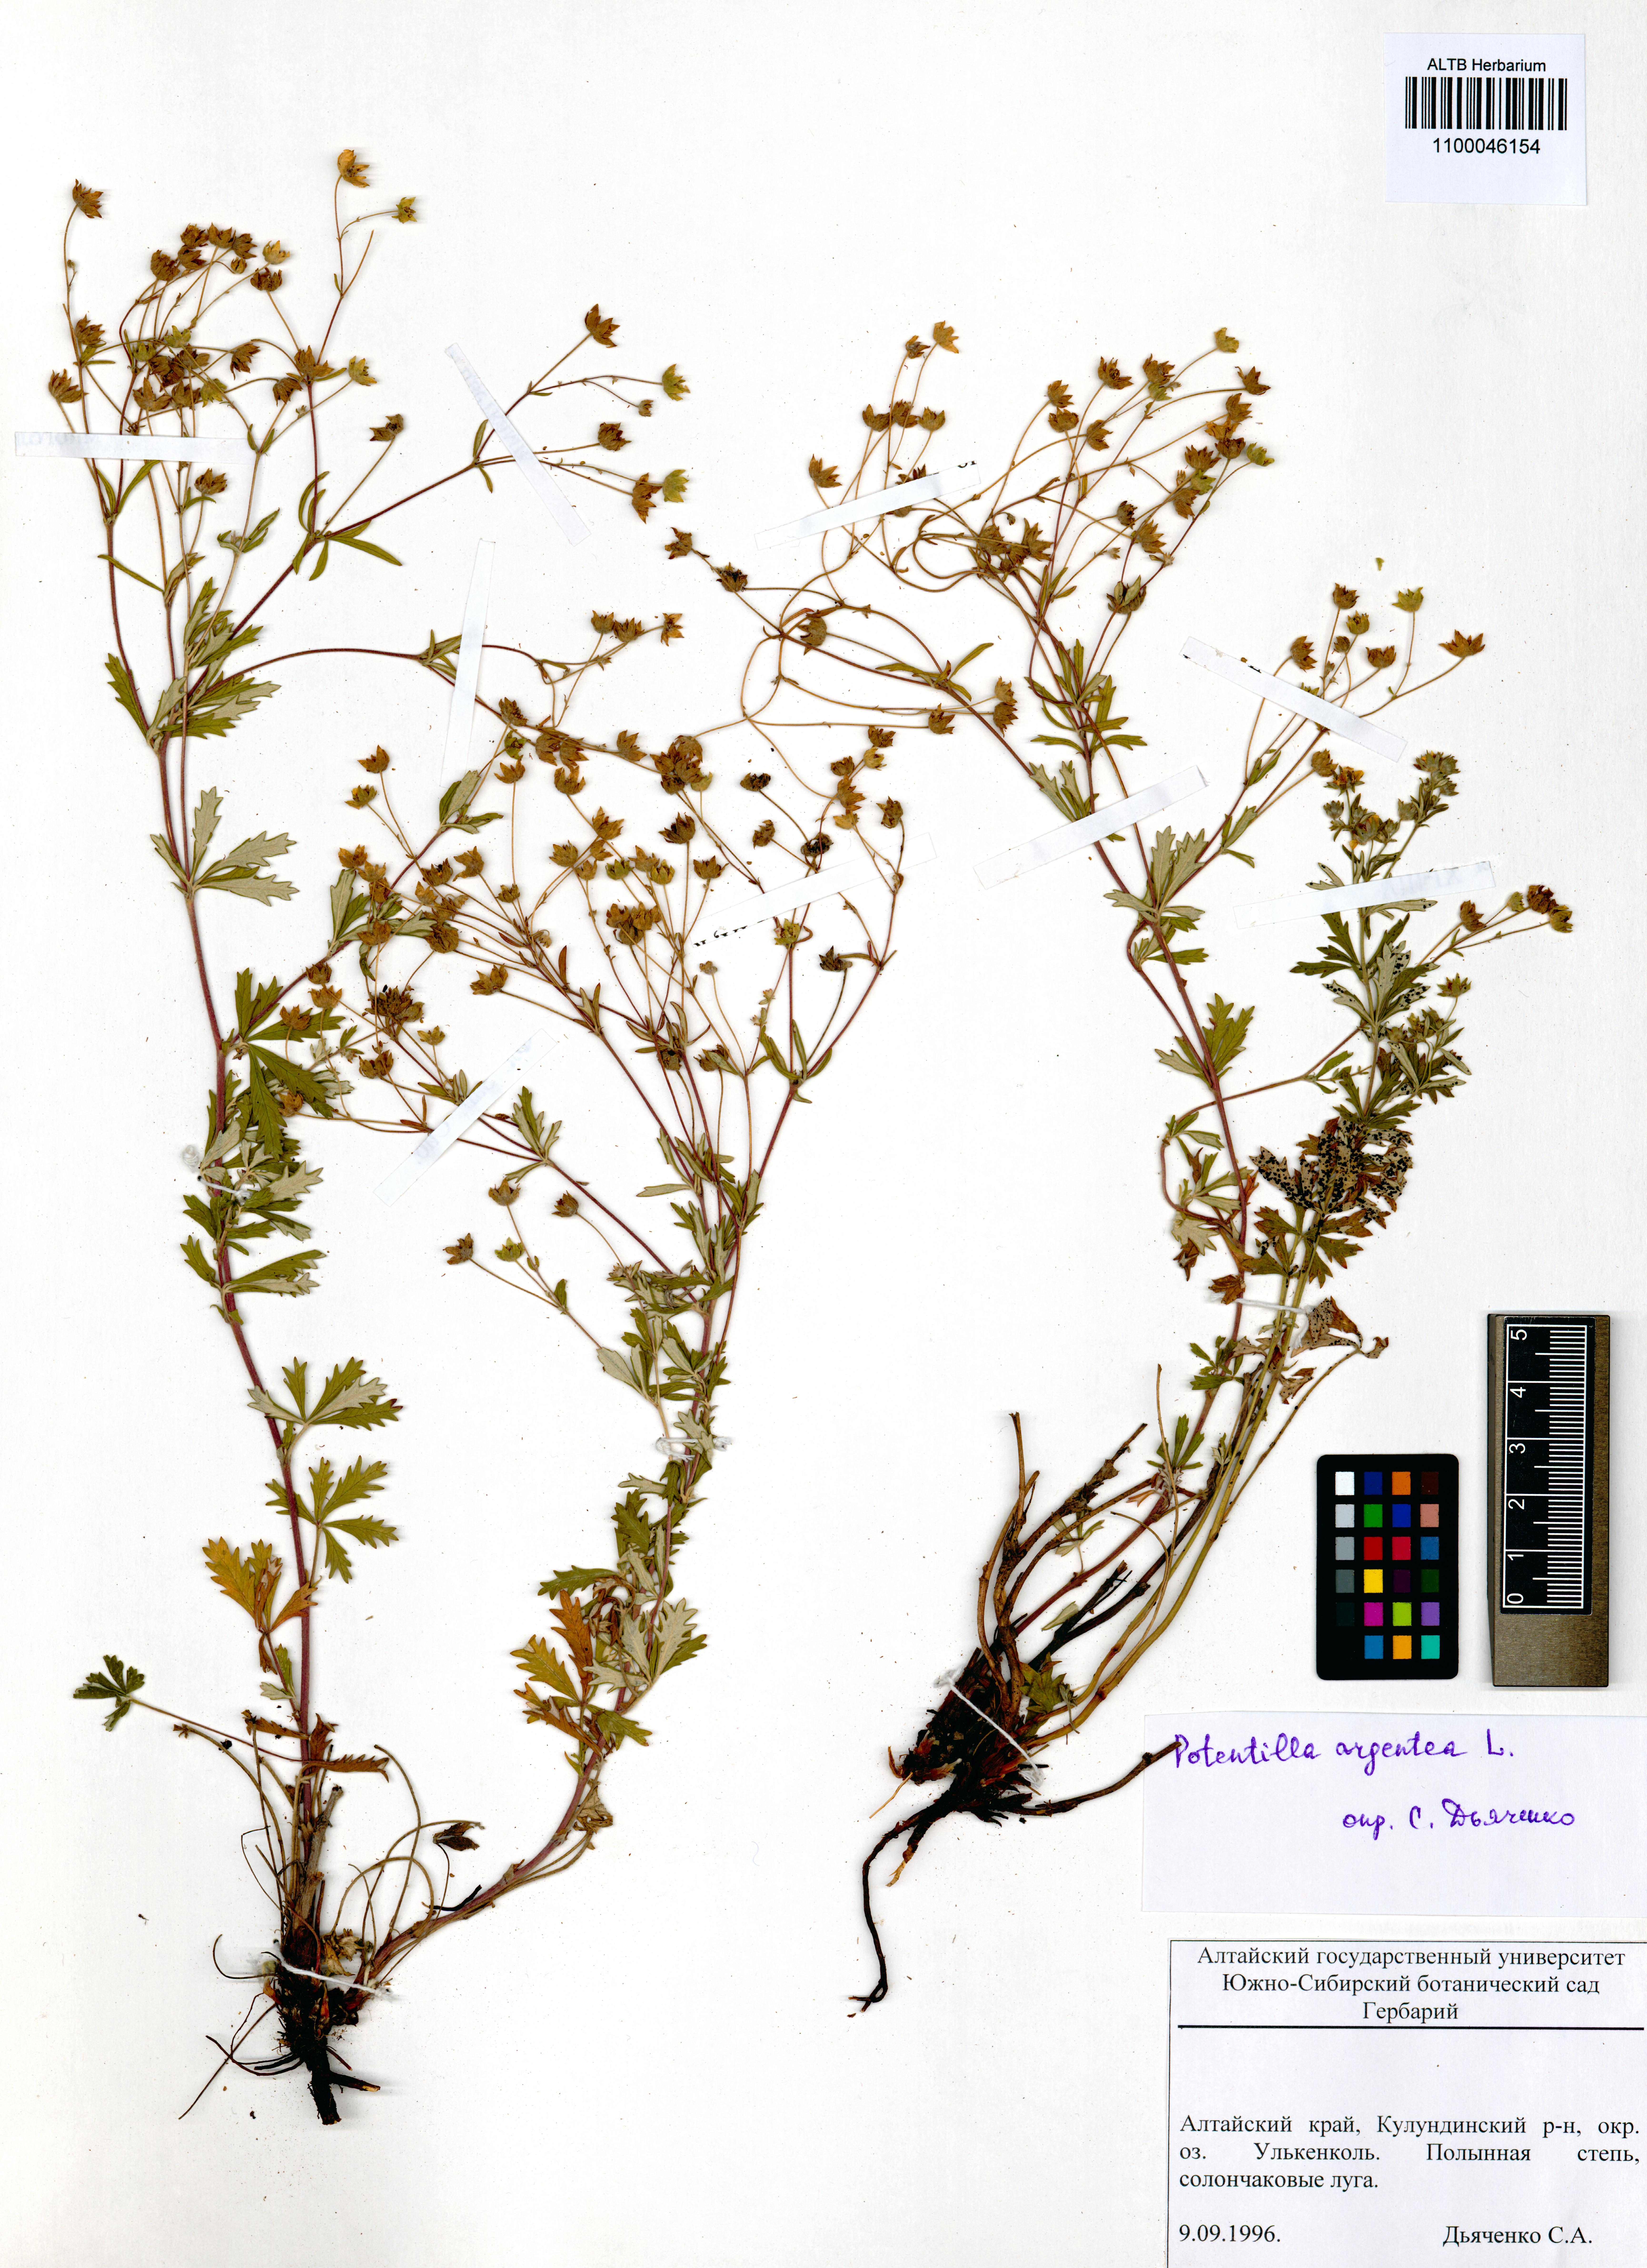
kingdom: Plantae
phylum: Tracheophyta
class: Magnoliopsida
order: Rosales
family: Rosaceae
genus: Potentilla
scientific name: Potentilla argentea
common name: Hoary cinquefoil
